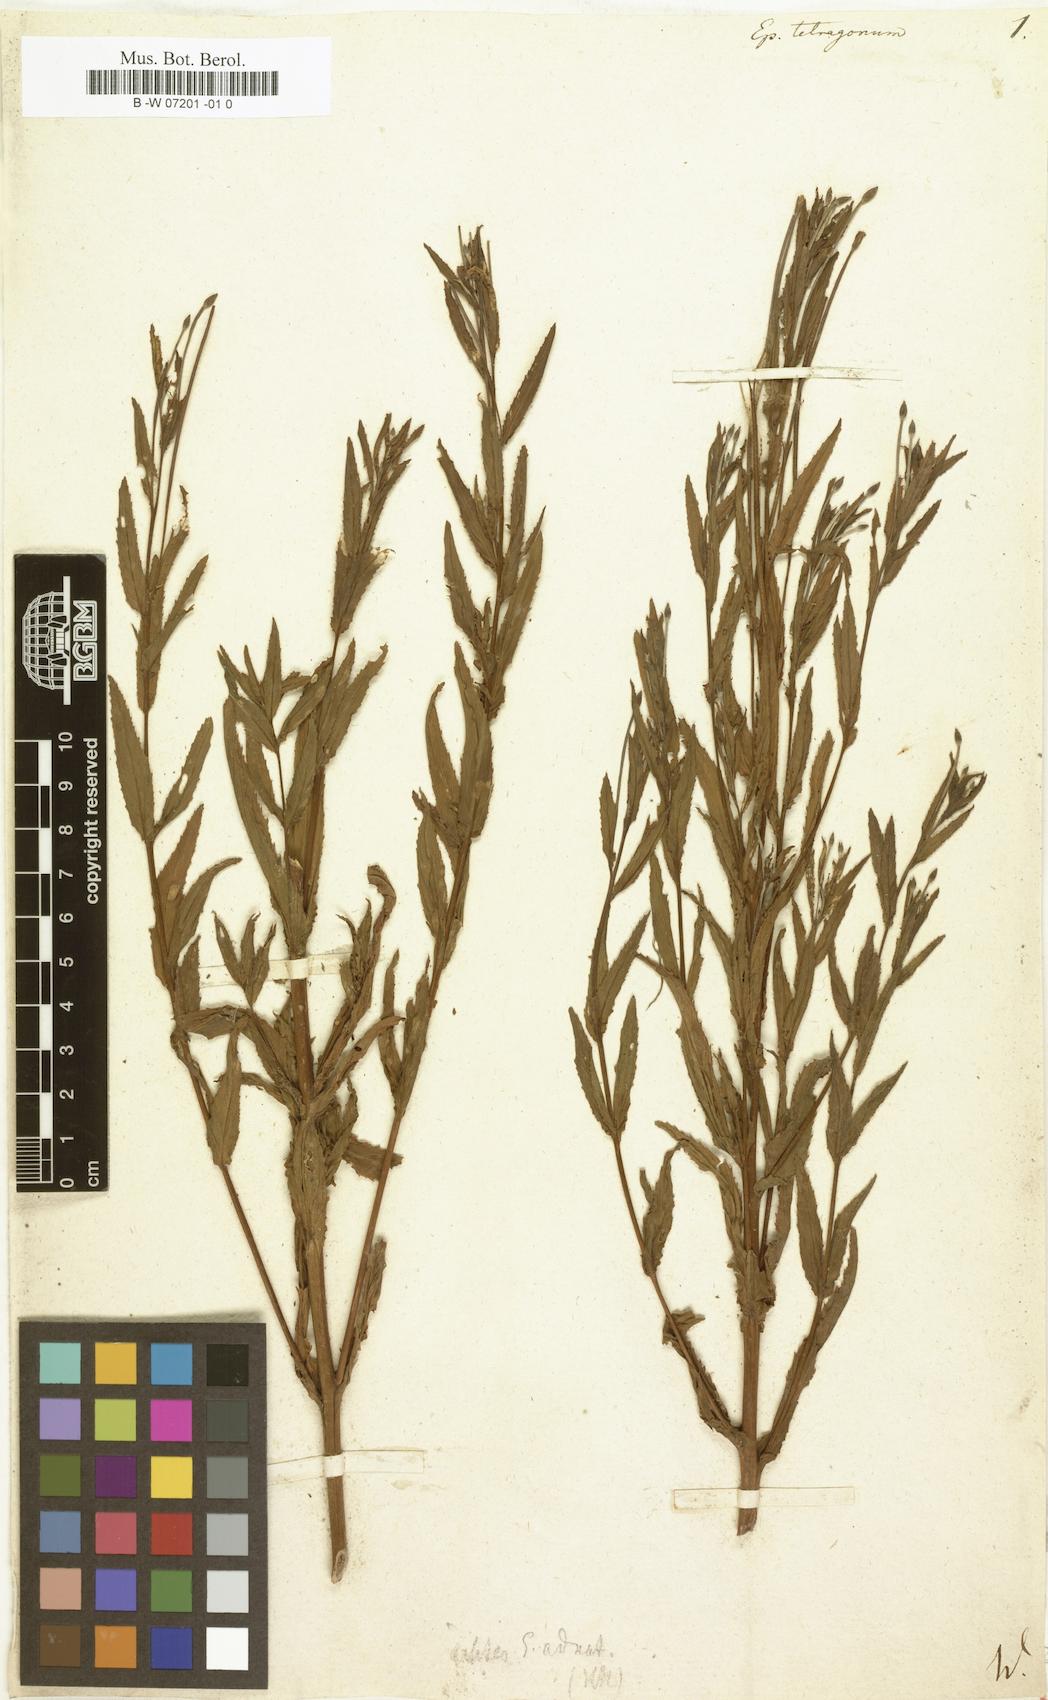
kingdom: Plantae
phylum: Tracheophyta
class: Magnoliopsida
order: Myrtales
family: Onagraceae
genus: Epilobium
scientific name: Epilobium tetragonum
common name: Square-stemmed willowherb
